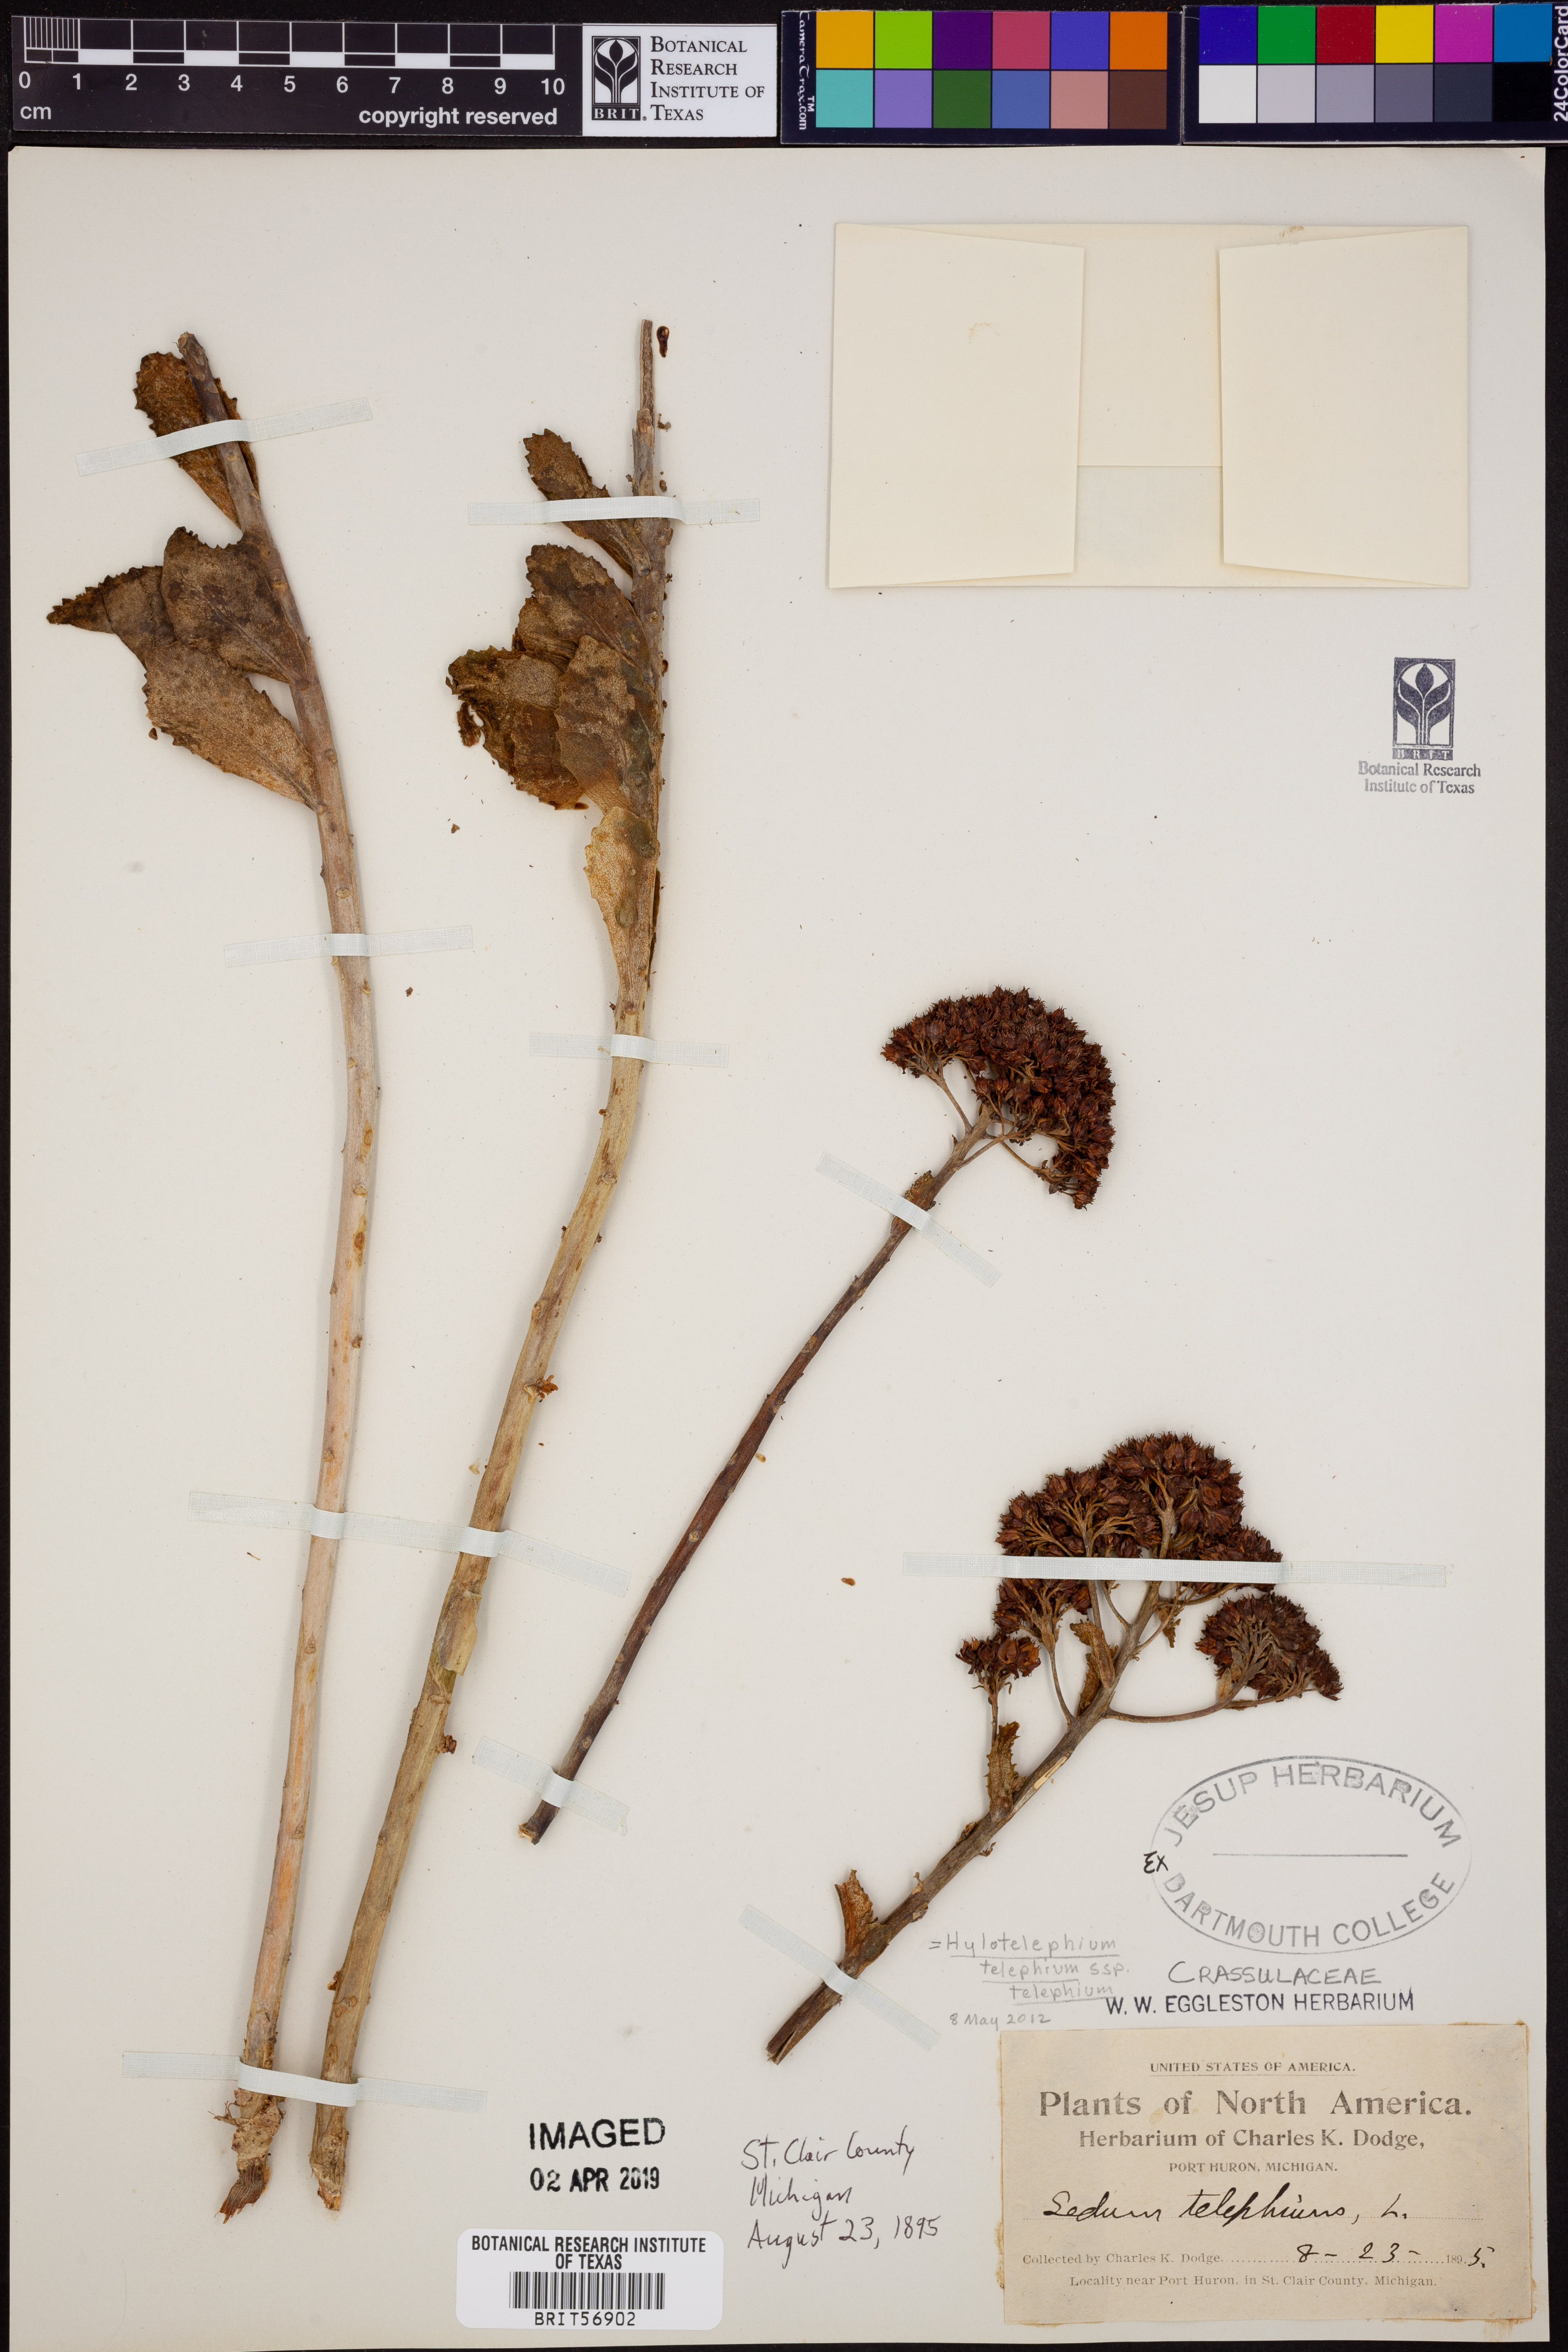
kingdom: Plantae
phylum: Tracheophyta
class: Magnoliopsida
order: Saxifragales
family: Crassulaceae
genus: Hylotelephium
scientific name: Hylotelephium telephium
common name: Live-forever
